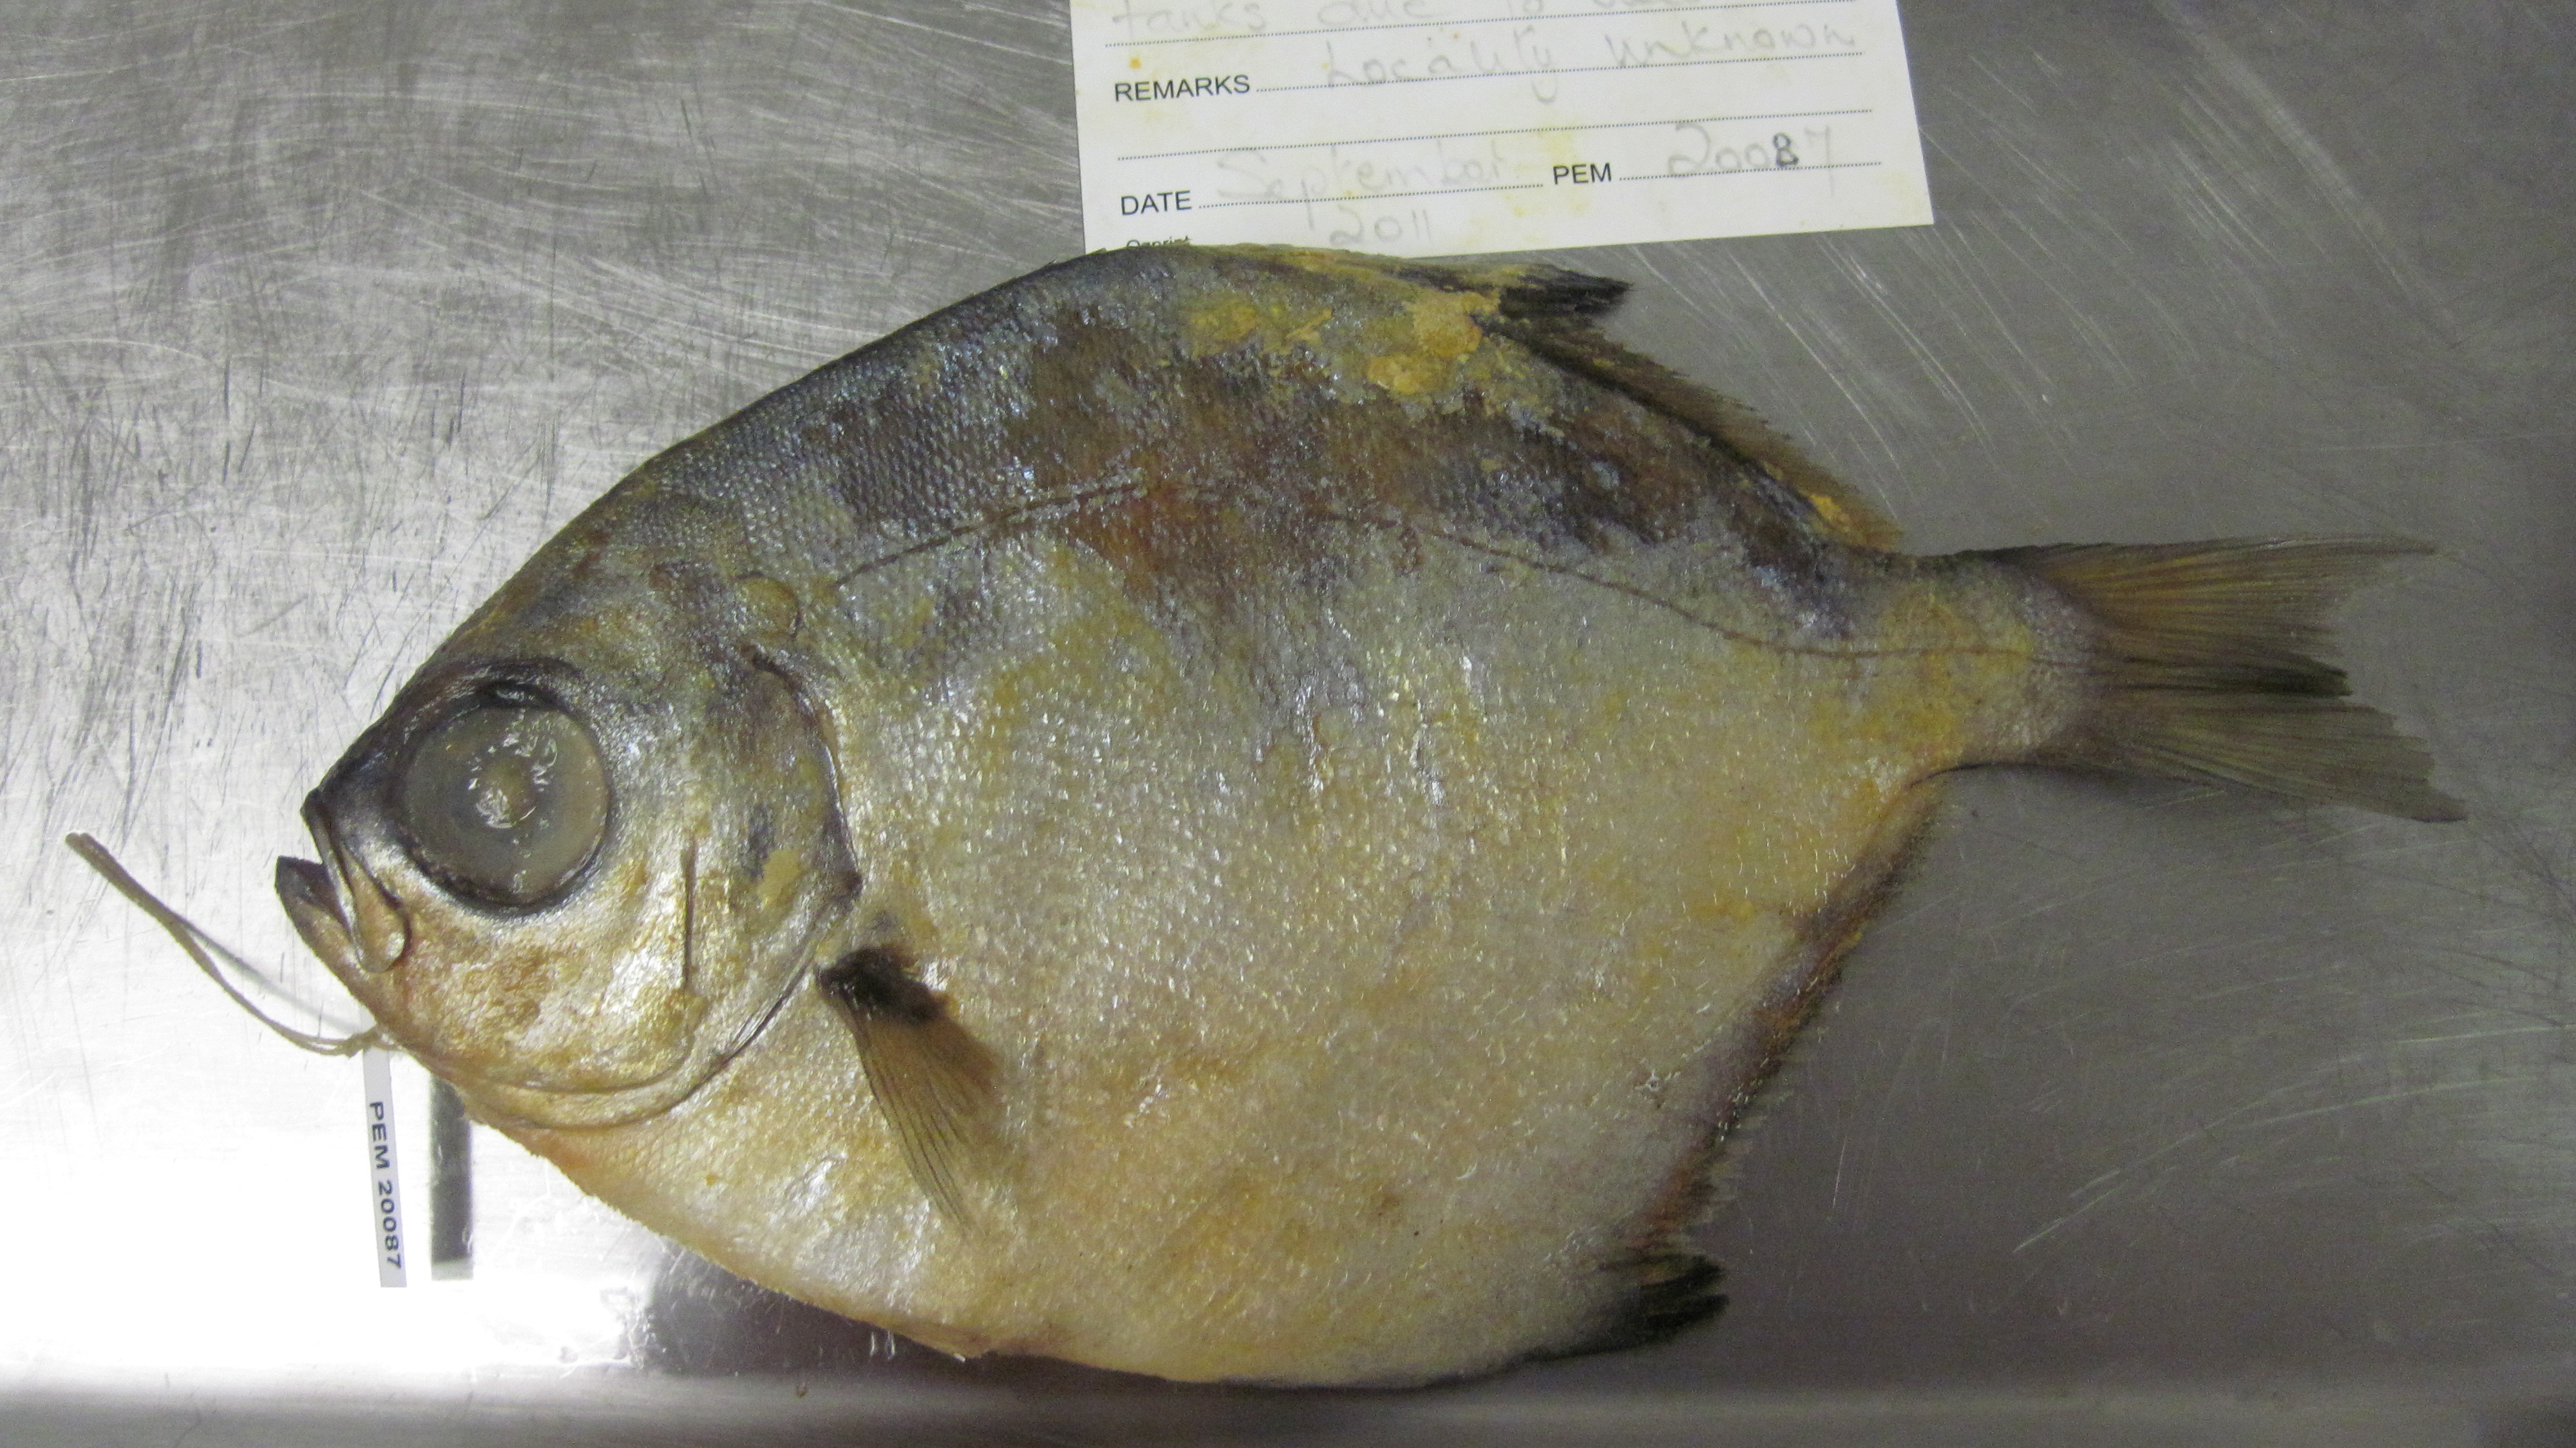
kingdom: Animalia
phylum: Chordata
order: Perciformes
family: Monodactylidae
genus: Monodactylus
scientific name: Monodactylus falciformis
